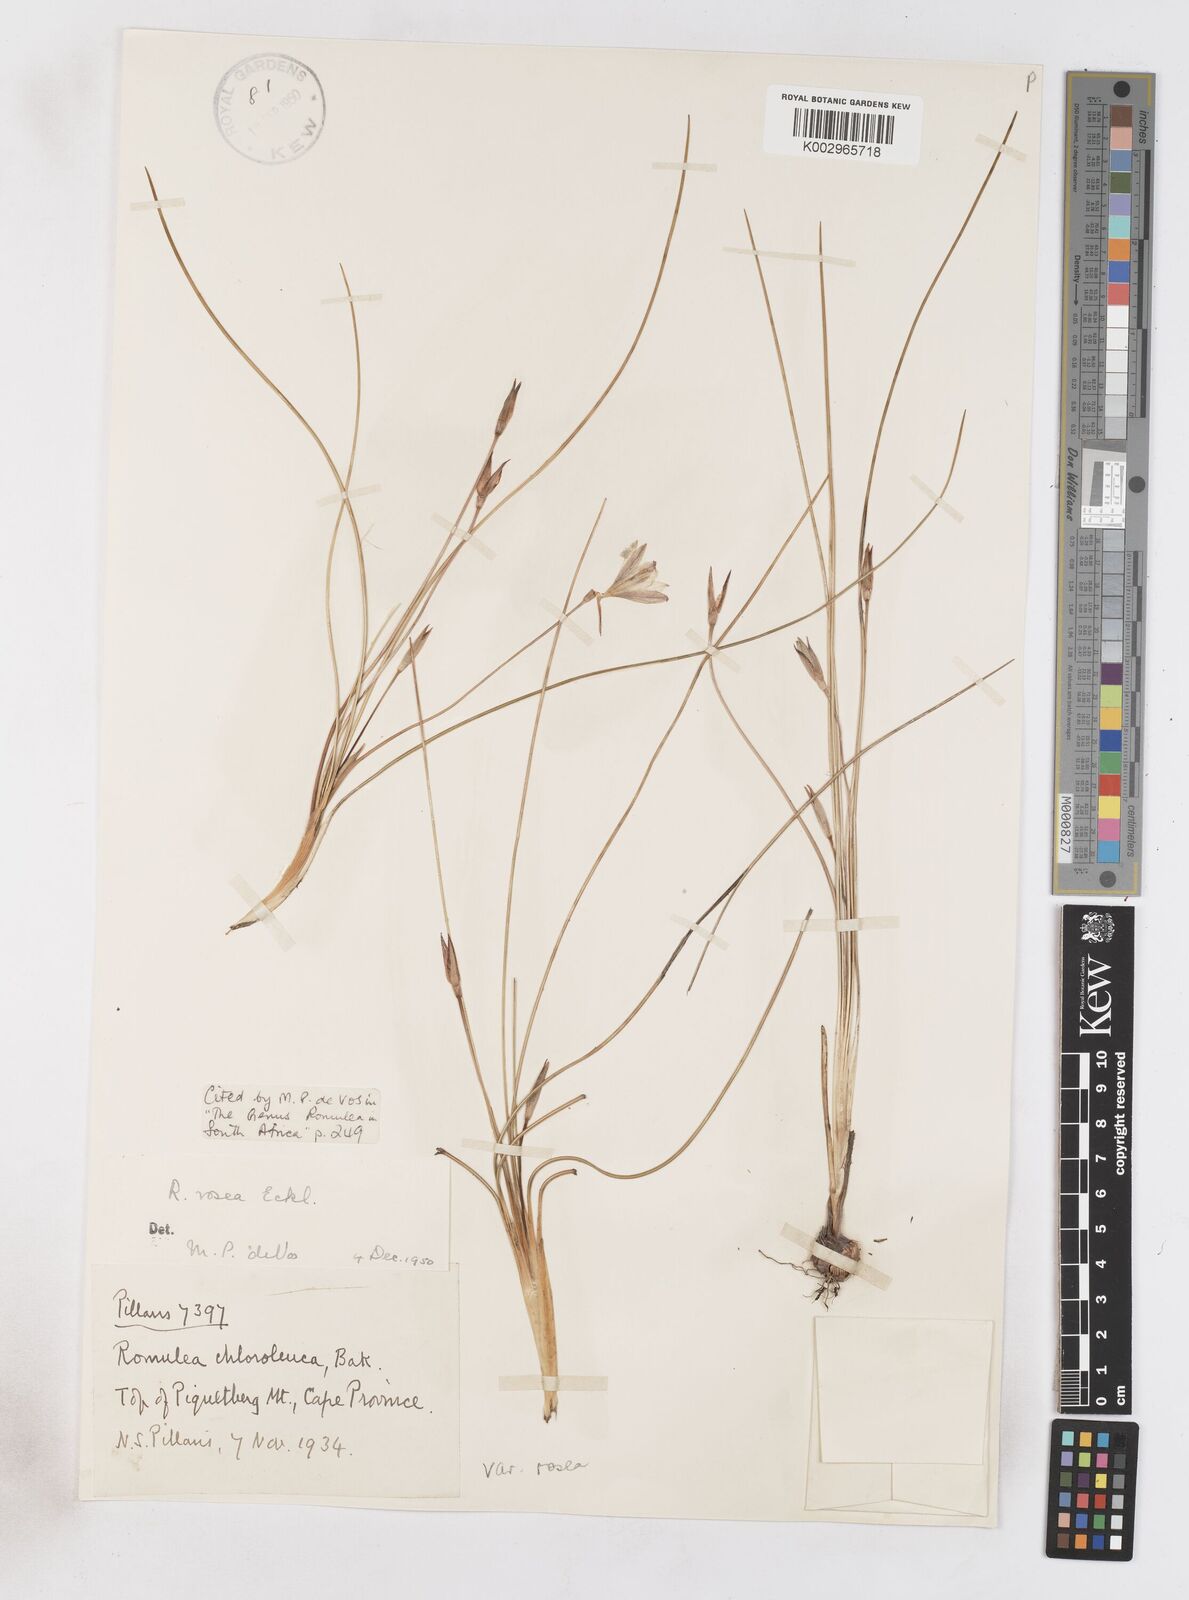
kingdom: Plantae
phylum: Tracheophyta
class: Liliopsida
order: Asparagales
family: Iridaceae
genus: Romulea
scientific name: Romulea rosea
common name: Oniongrass
